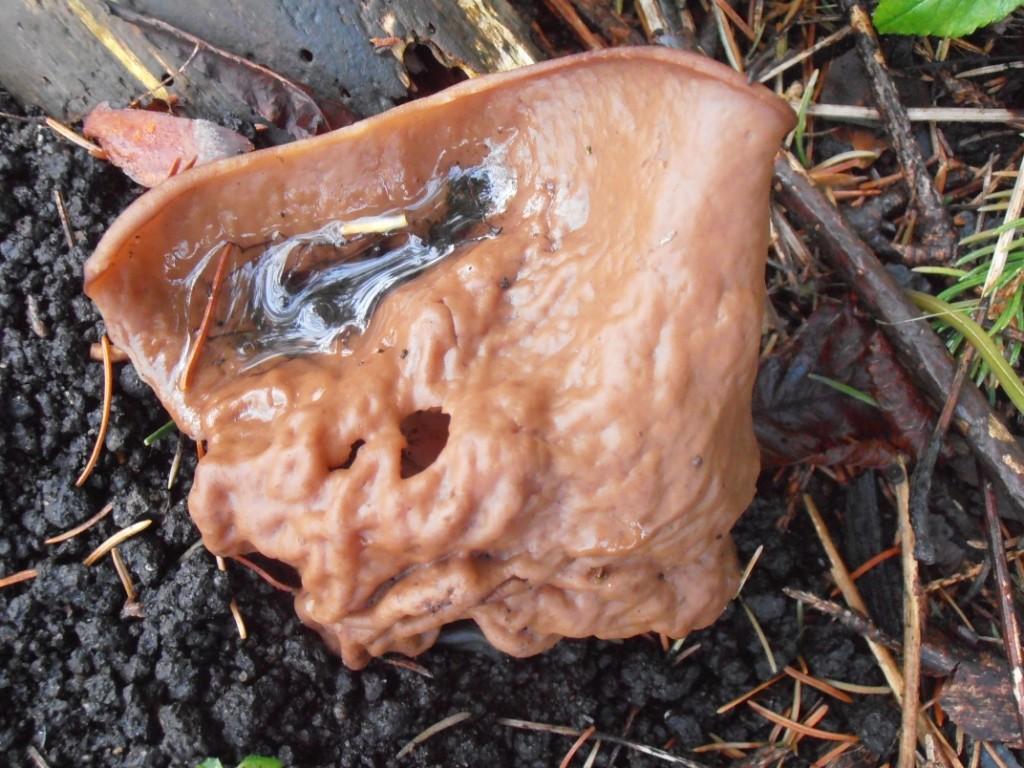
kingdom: Fungi
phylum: Ascomycota
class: Pezizomycetes
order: Pezizales
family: Discinaceae
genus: Discina
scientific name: Discina ancilis
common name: udbredt stenmorkel
